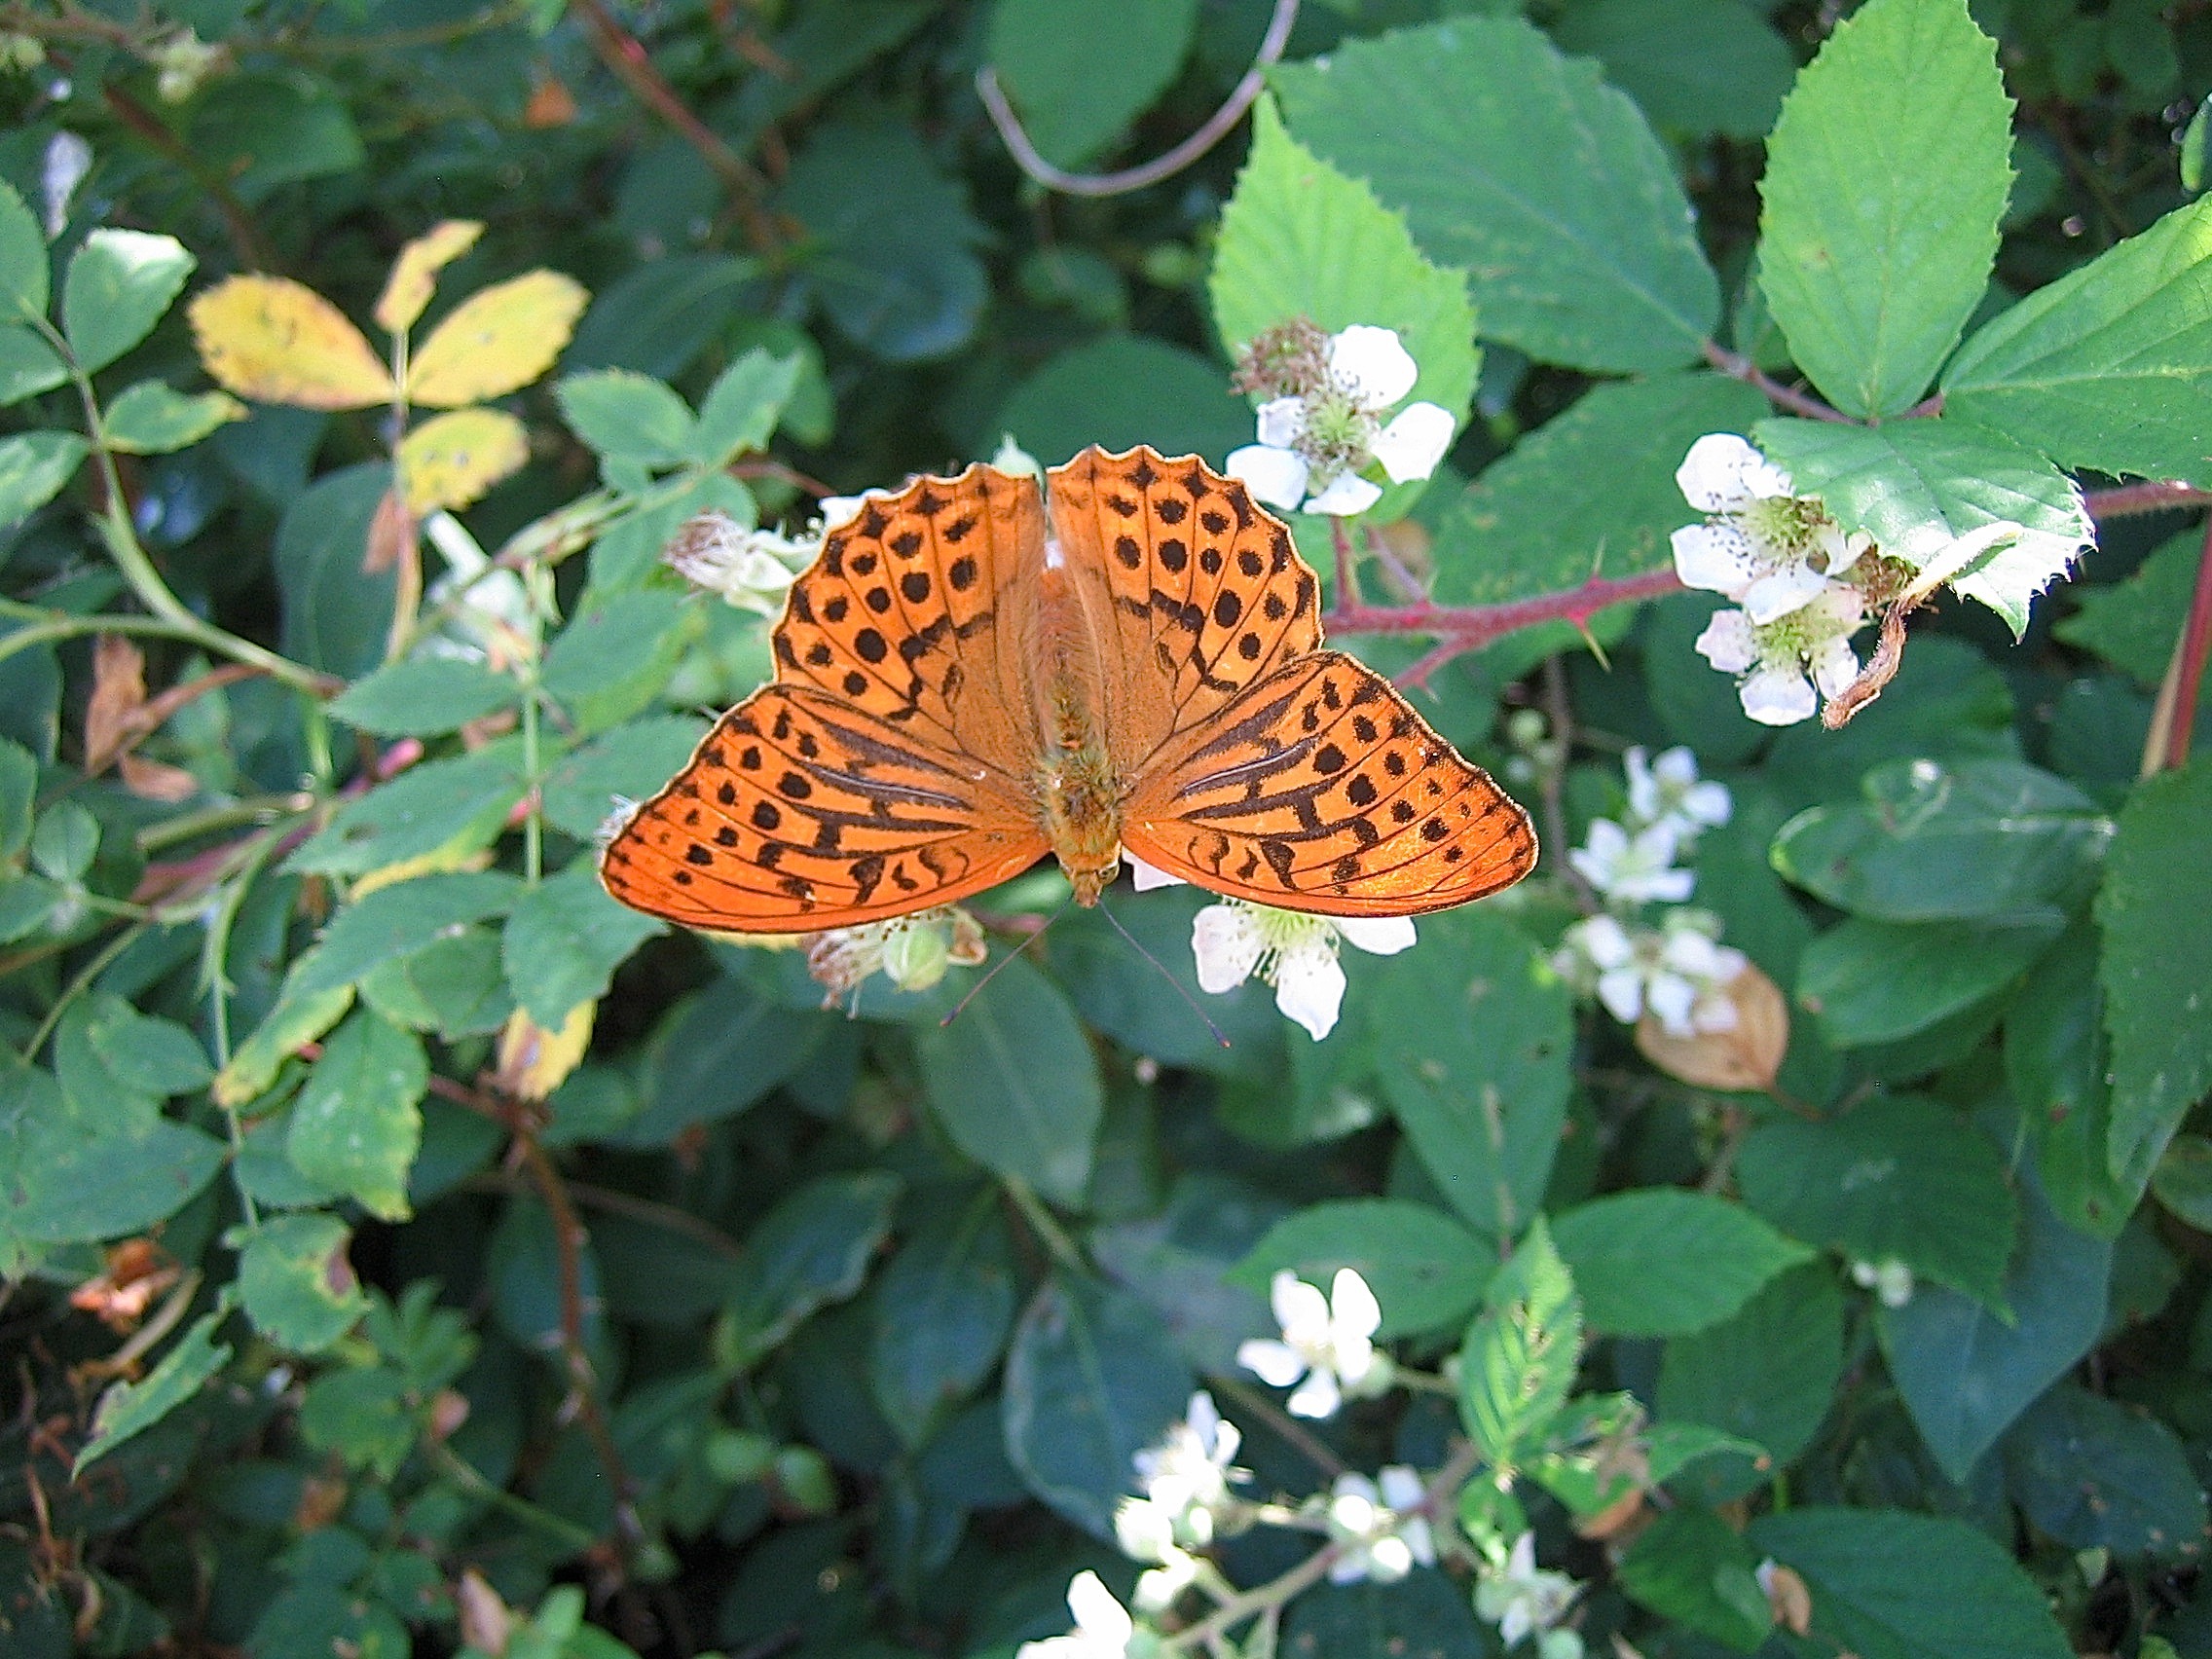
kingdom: Animalia
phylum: Arthropoda
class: Insecta
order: Lepidoptera
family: Nymphalidae
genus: Argynnis
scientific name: Argynnis paphia
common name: Kejserkåbe
